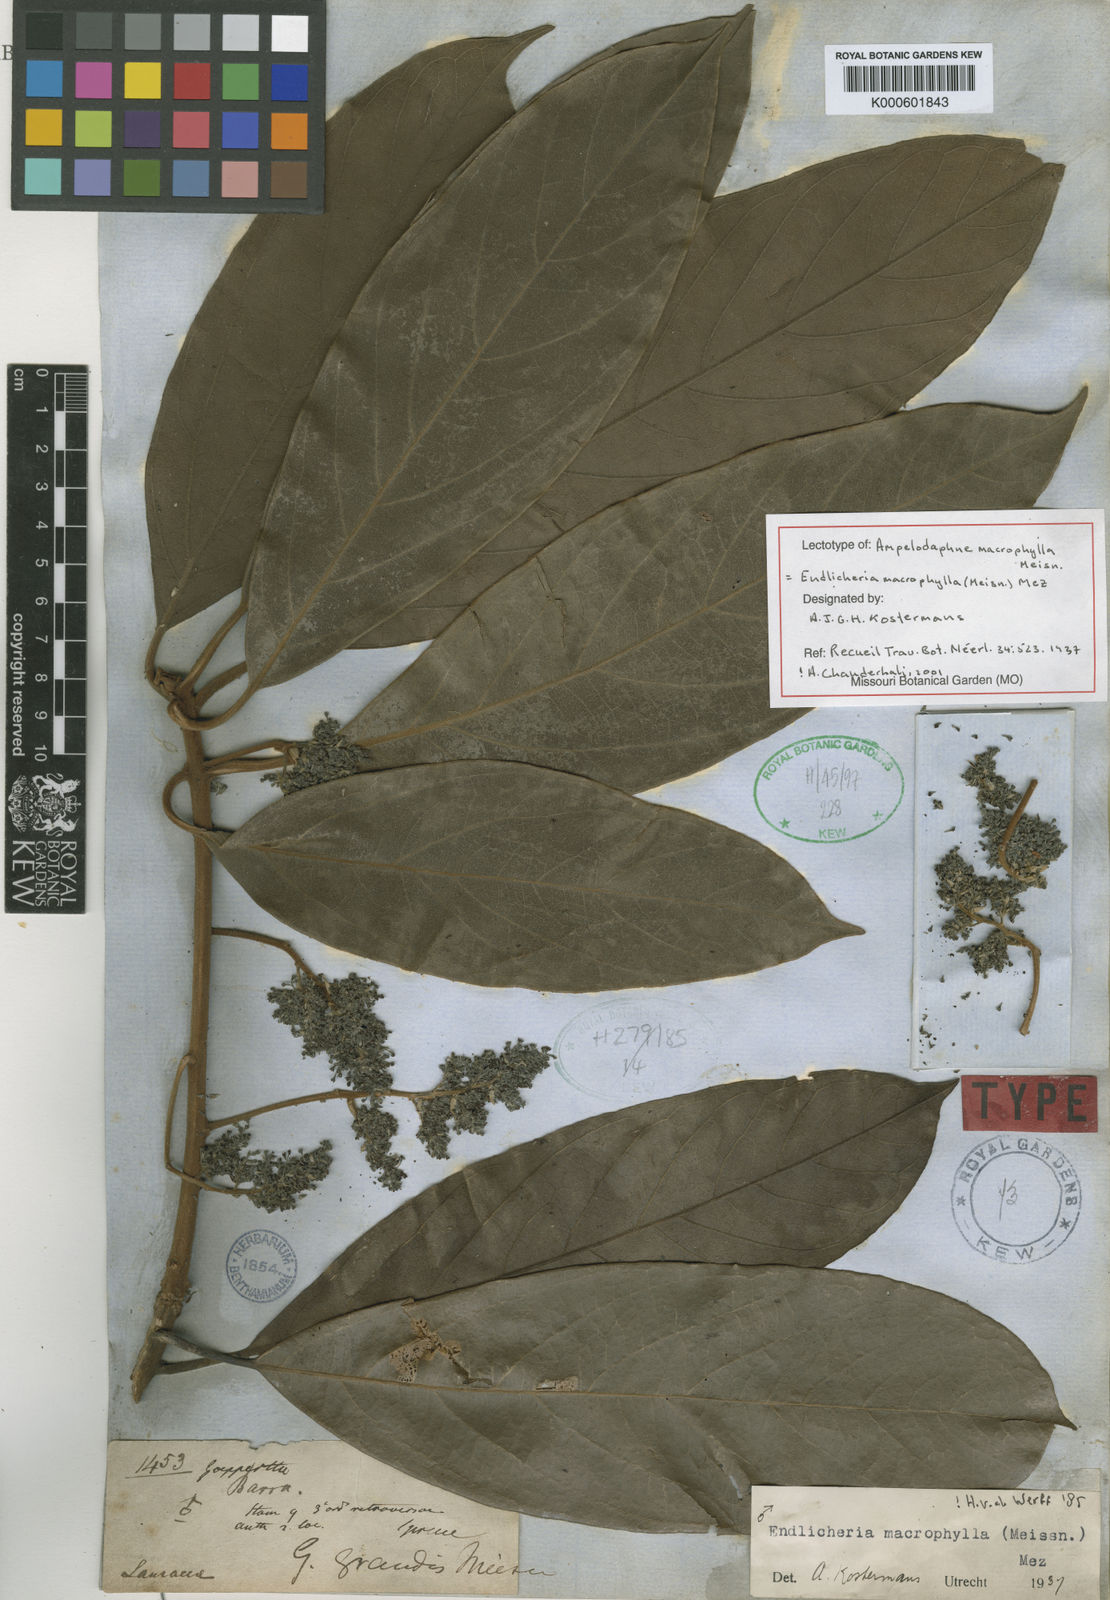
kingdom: Plantae
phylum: Tracheophyta
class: Magnoliopsida
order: Laurales
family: Lauraceae
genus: Endlicheria
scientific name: Endlicheria macrophylla
